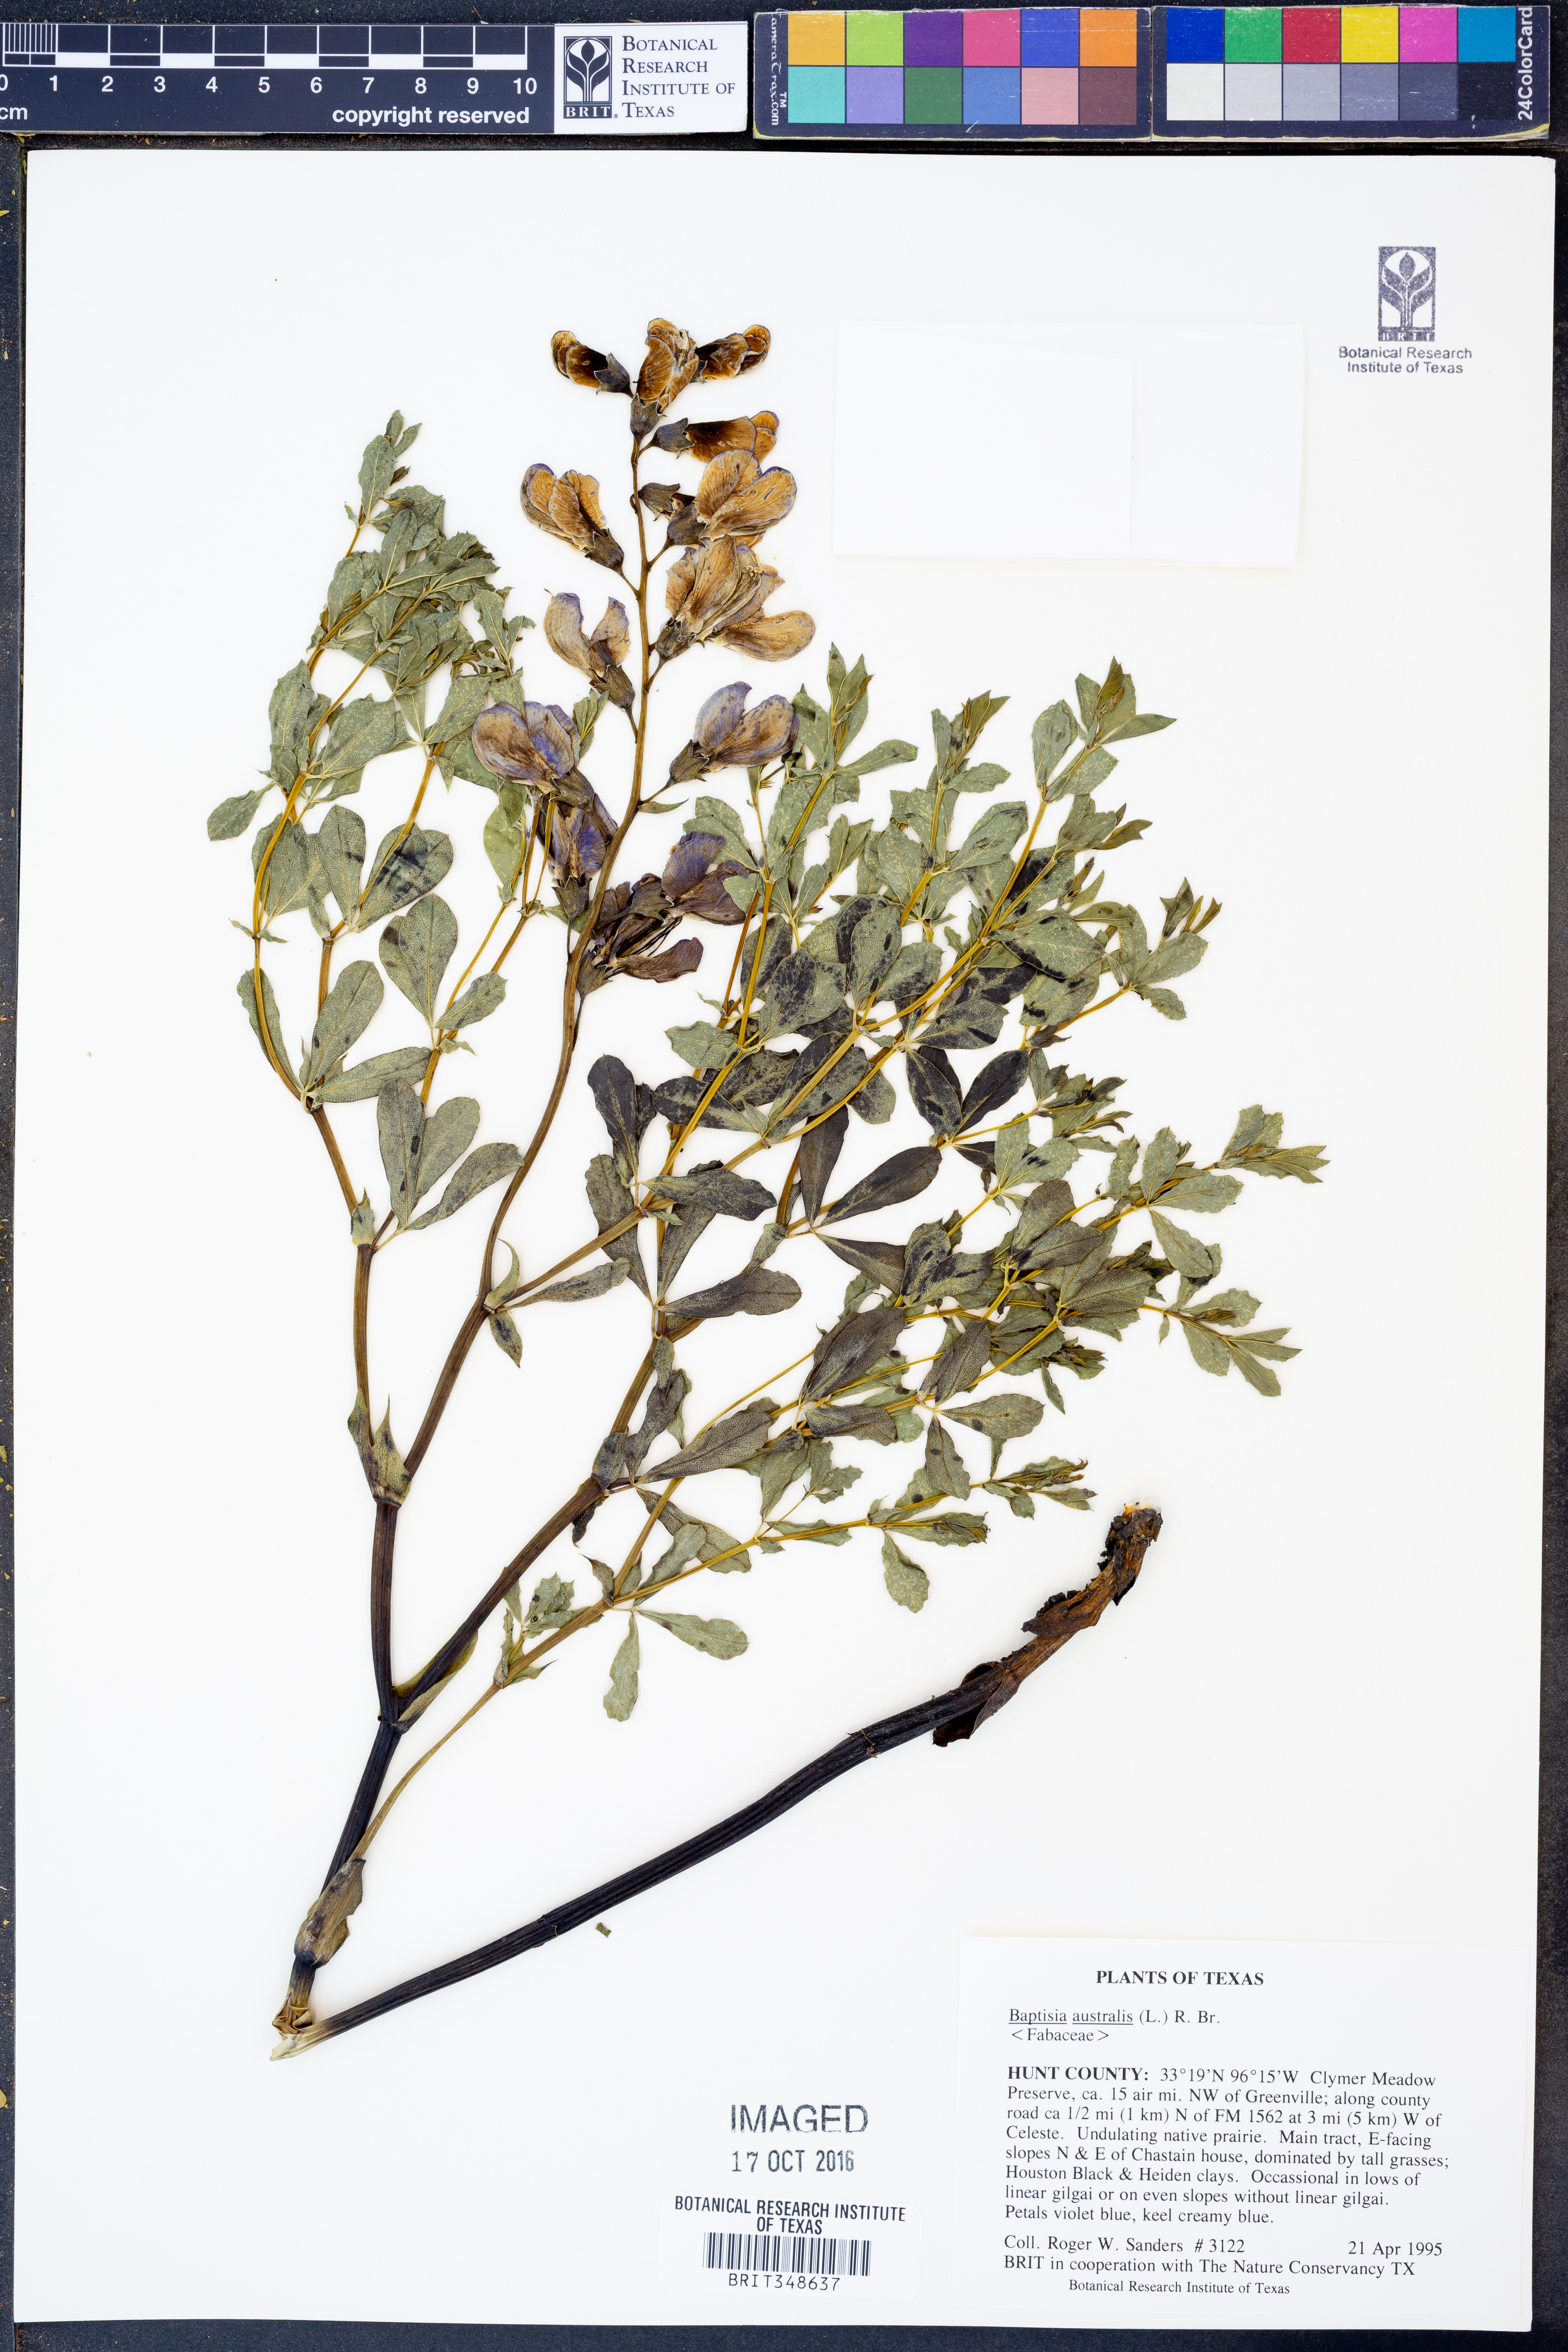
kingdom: Plantae
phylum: Tracheophyta
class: Magnoliopsida
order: Fabales
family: Fabaceae
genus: Baptisia
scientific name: Baptisia australis
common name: Blue false indigo
